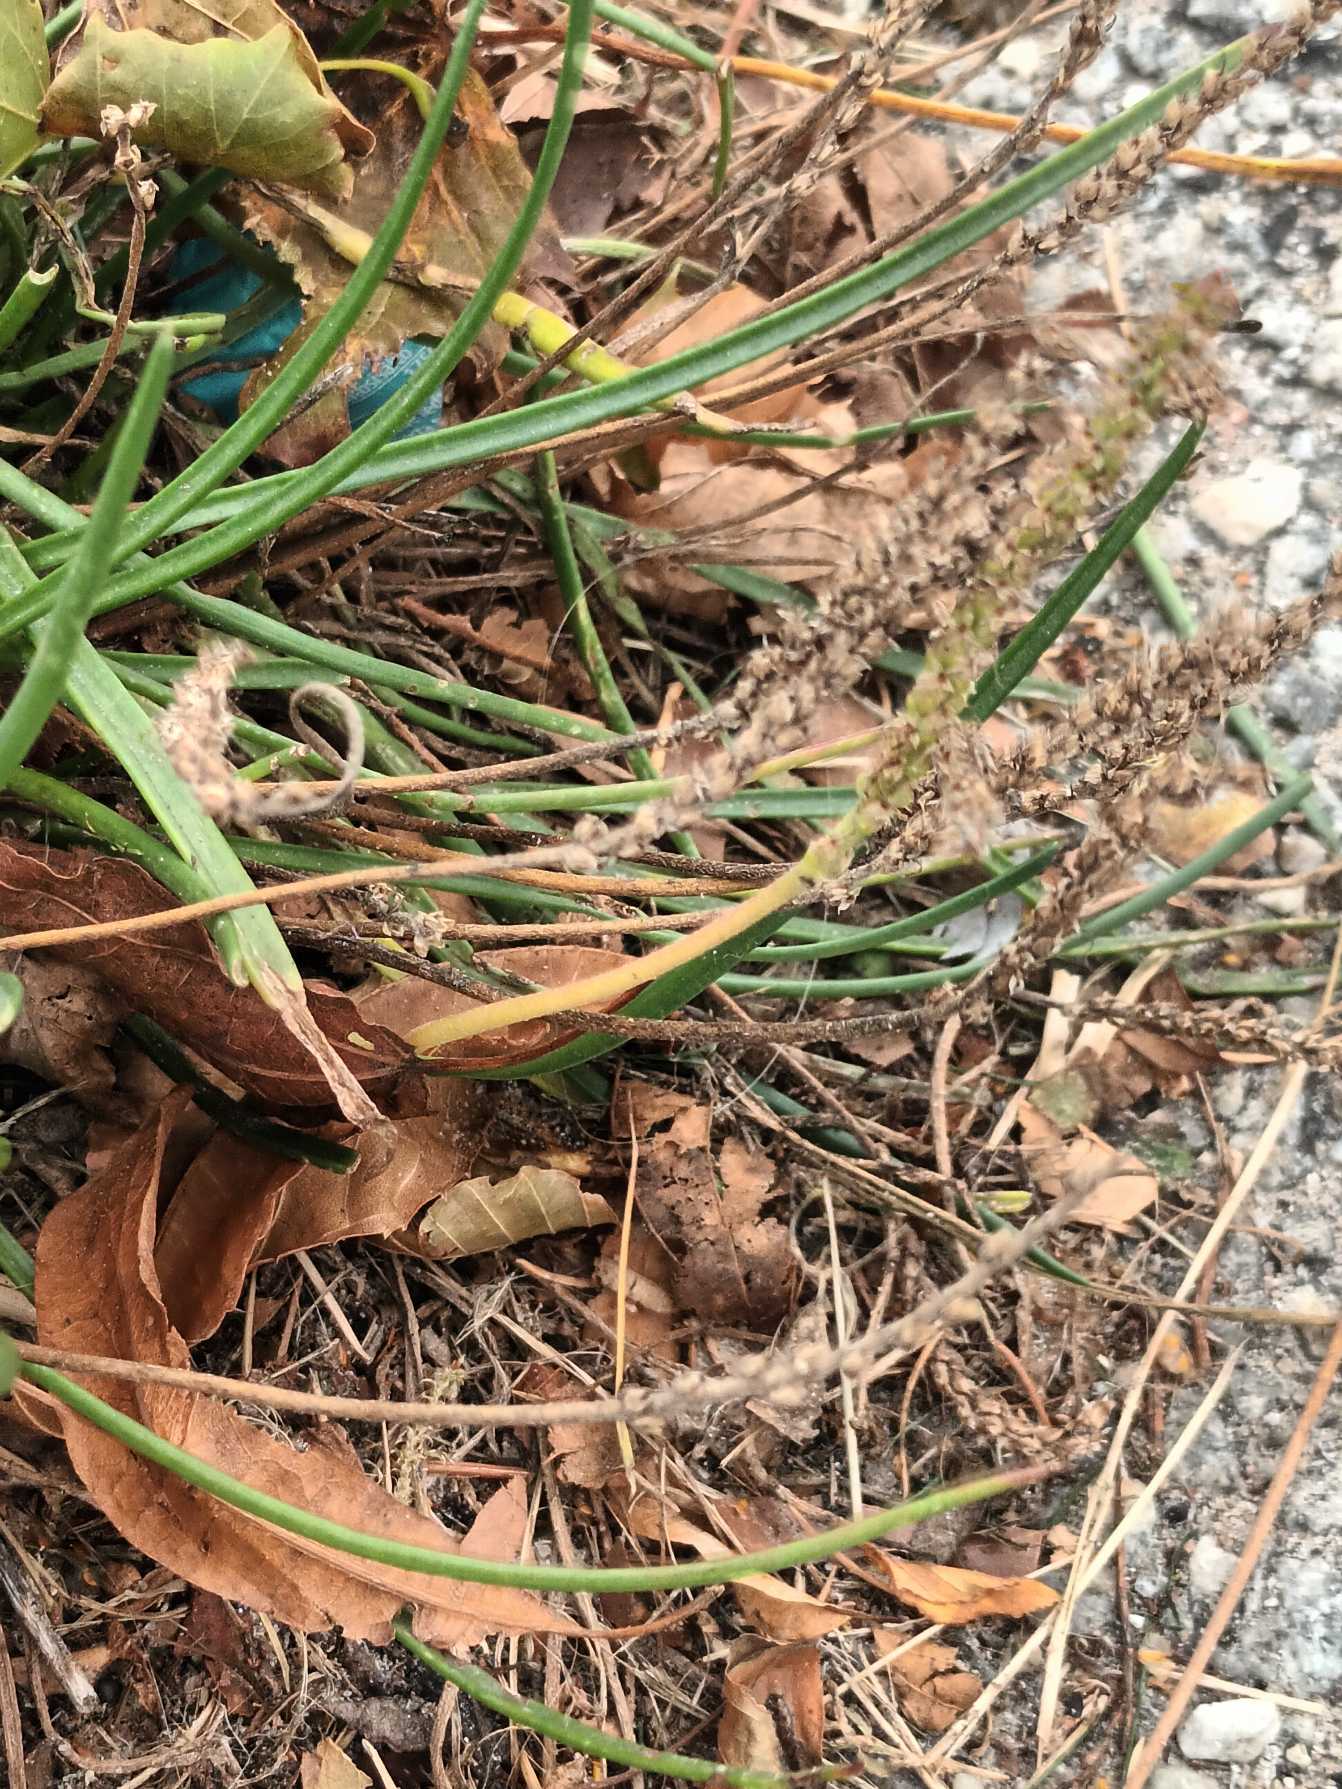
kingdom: Plantae
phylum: Tracheophyta
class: Magnoliopsida
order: Lamiales
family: Plantaginaceae
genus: Plantago
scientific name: Plantago maritima
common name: Strand-vejbred
